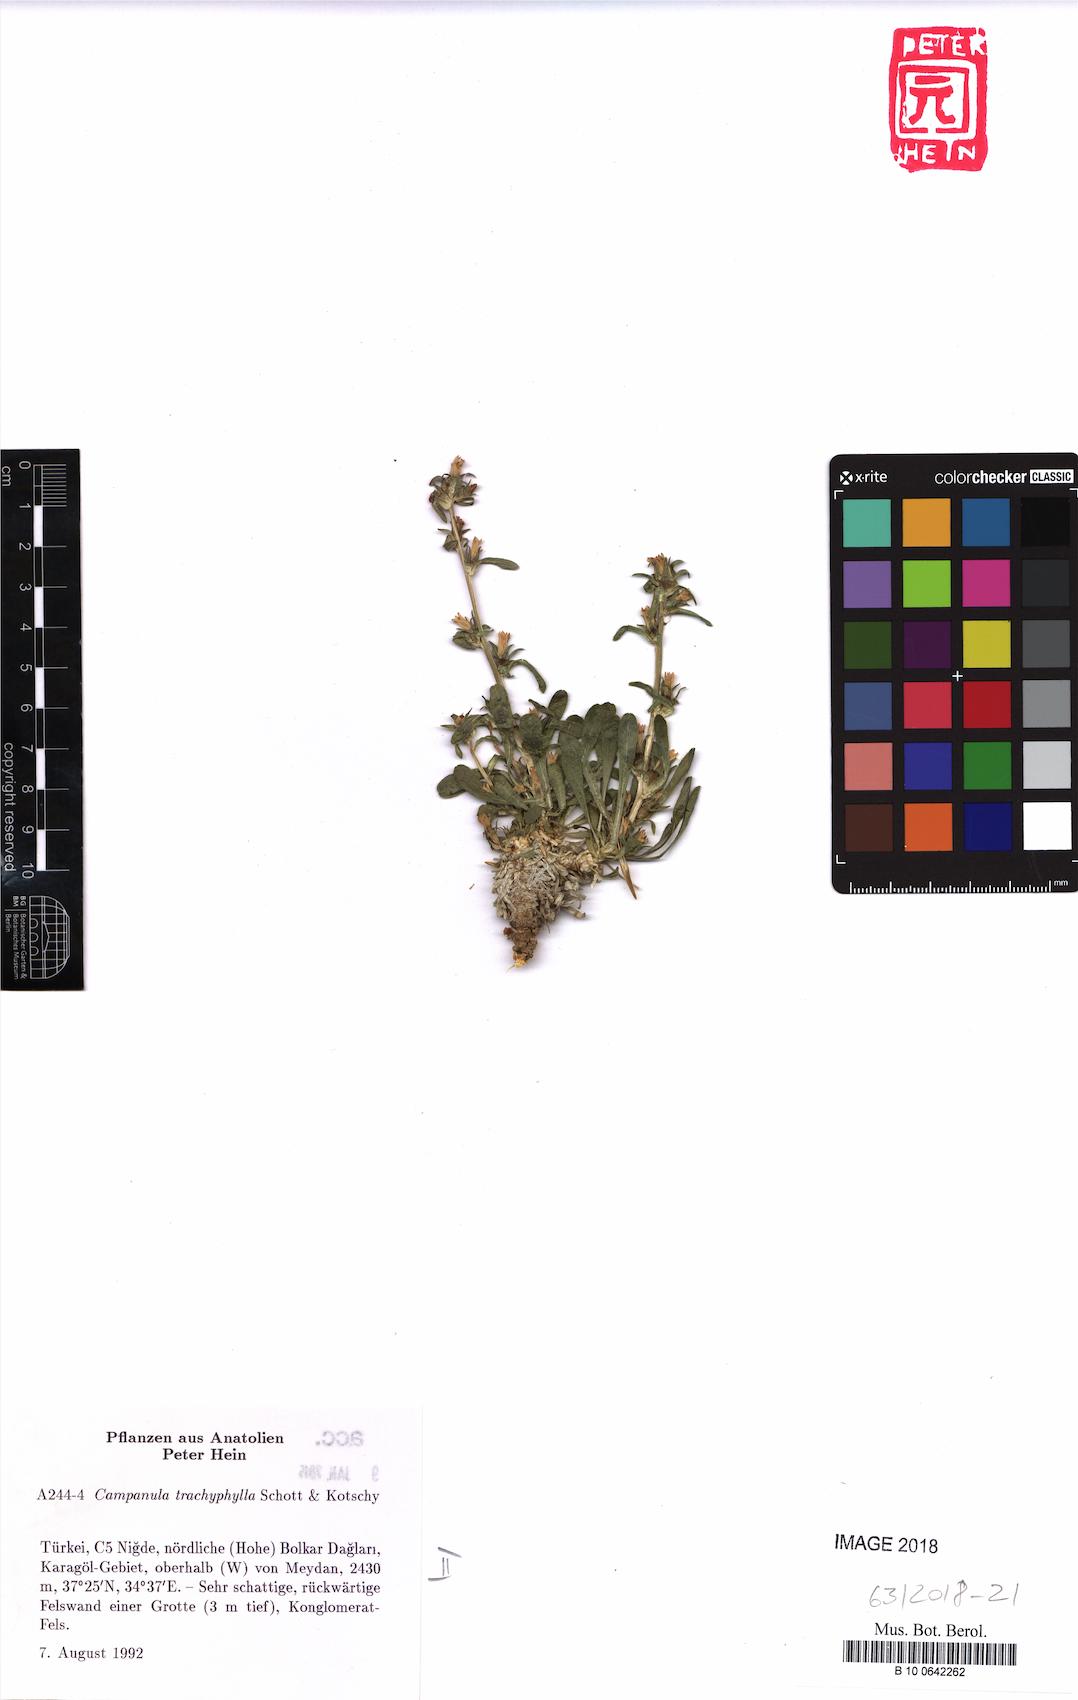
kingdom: Plantae
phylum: Tracheophyta
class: Magnoliopsida
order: Asterales
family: Campanulaceae
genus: Campanula
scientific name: Campanula trachyphylla
